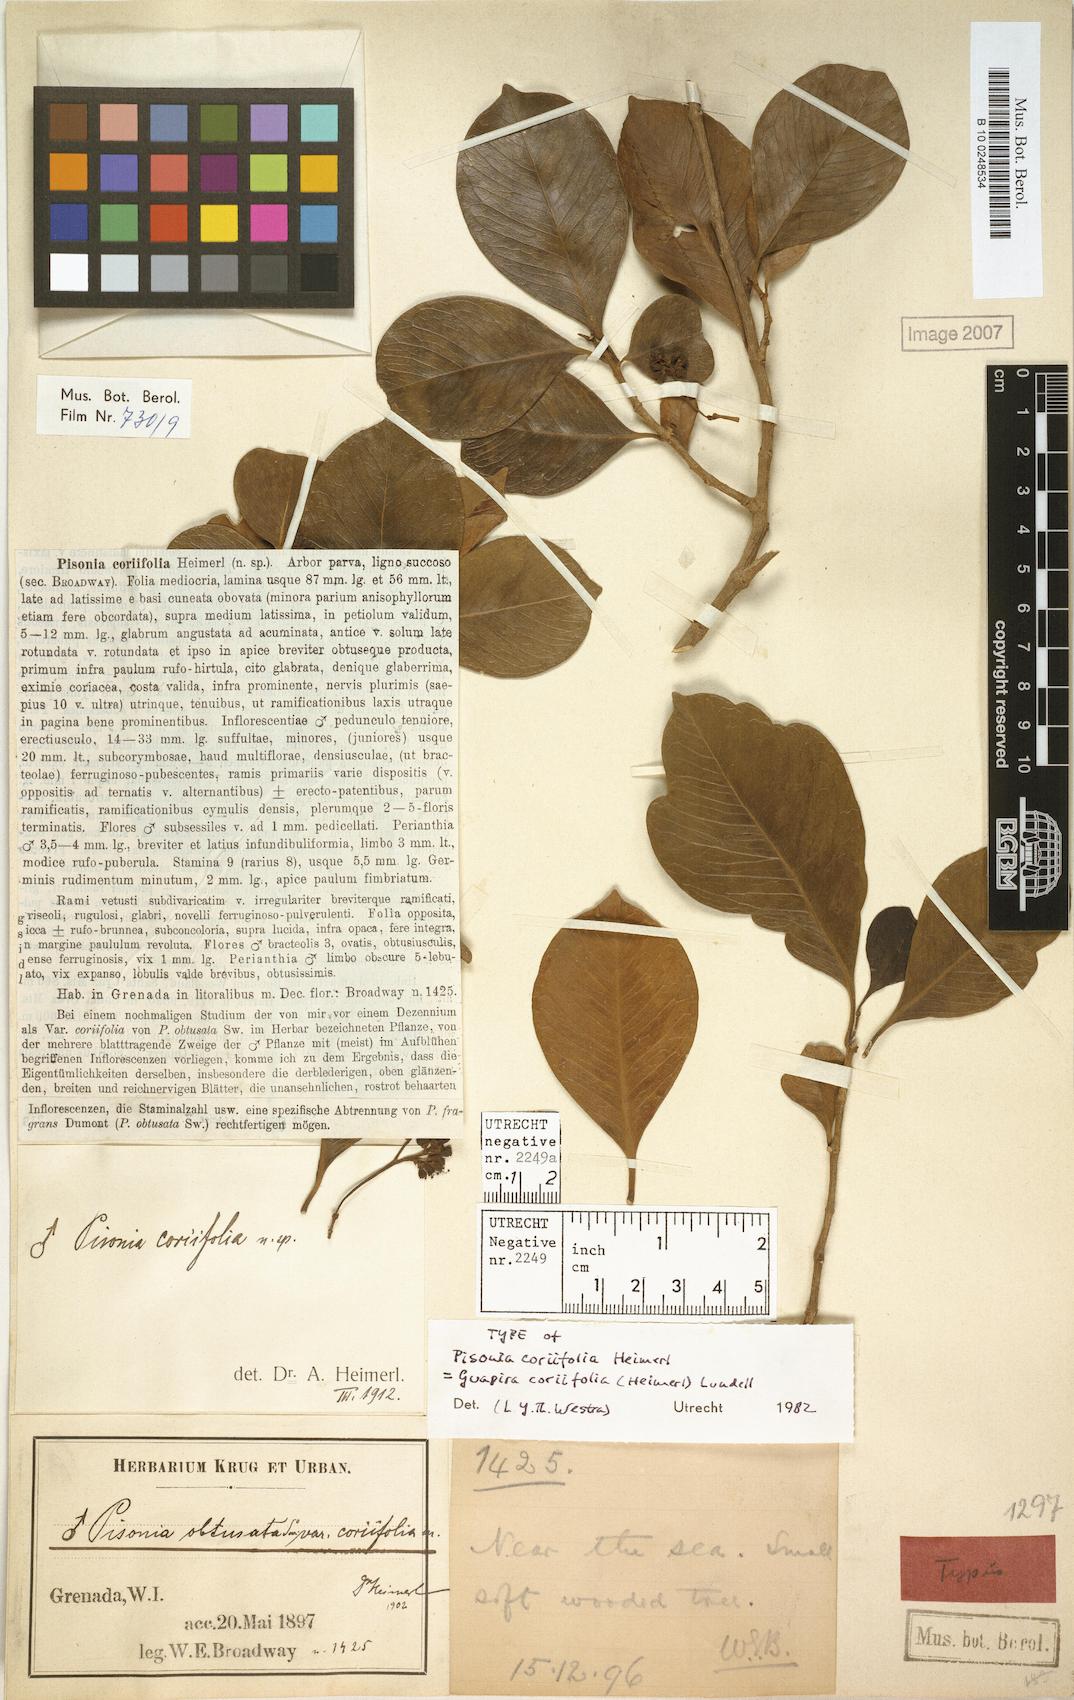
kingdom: Plantae
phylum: Tracheophyta
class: Magnoliopsida
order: Caryophyllales
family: Nyctaginaceae
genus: Guapira
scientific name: Guapira fragrans
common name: Black loblolly tree
